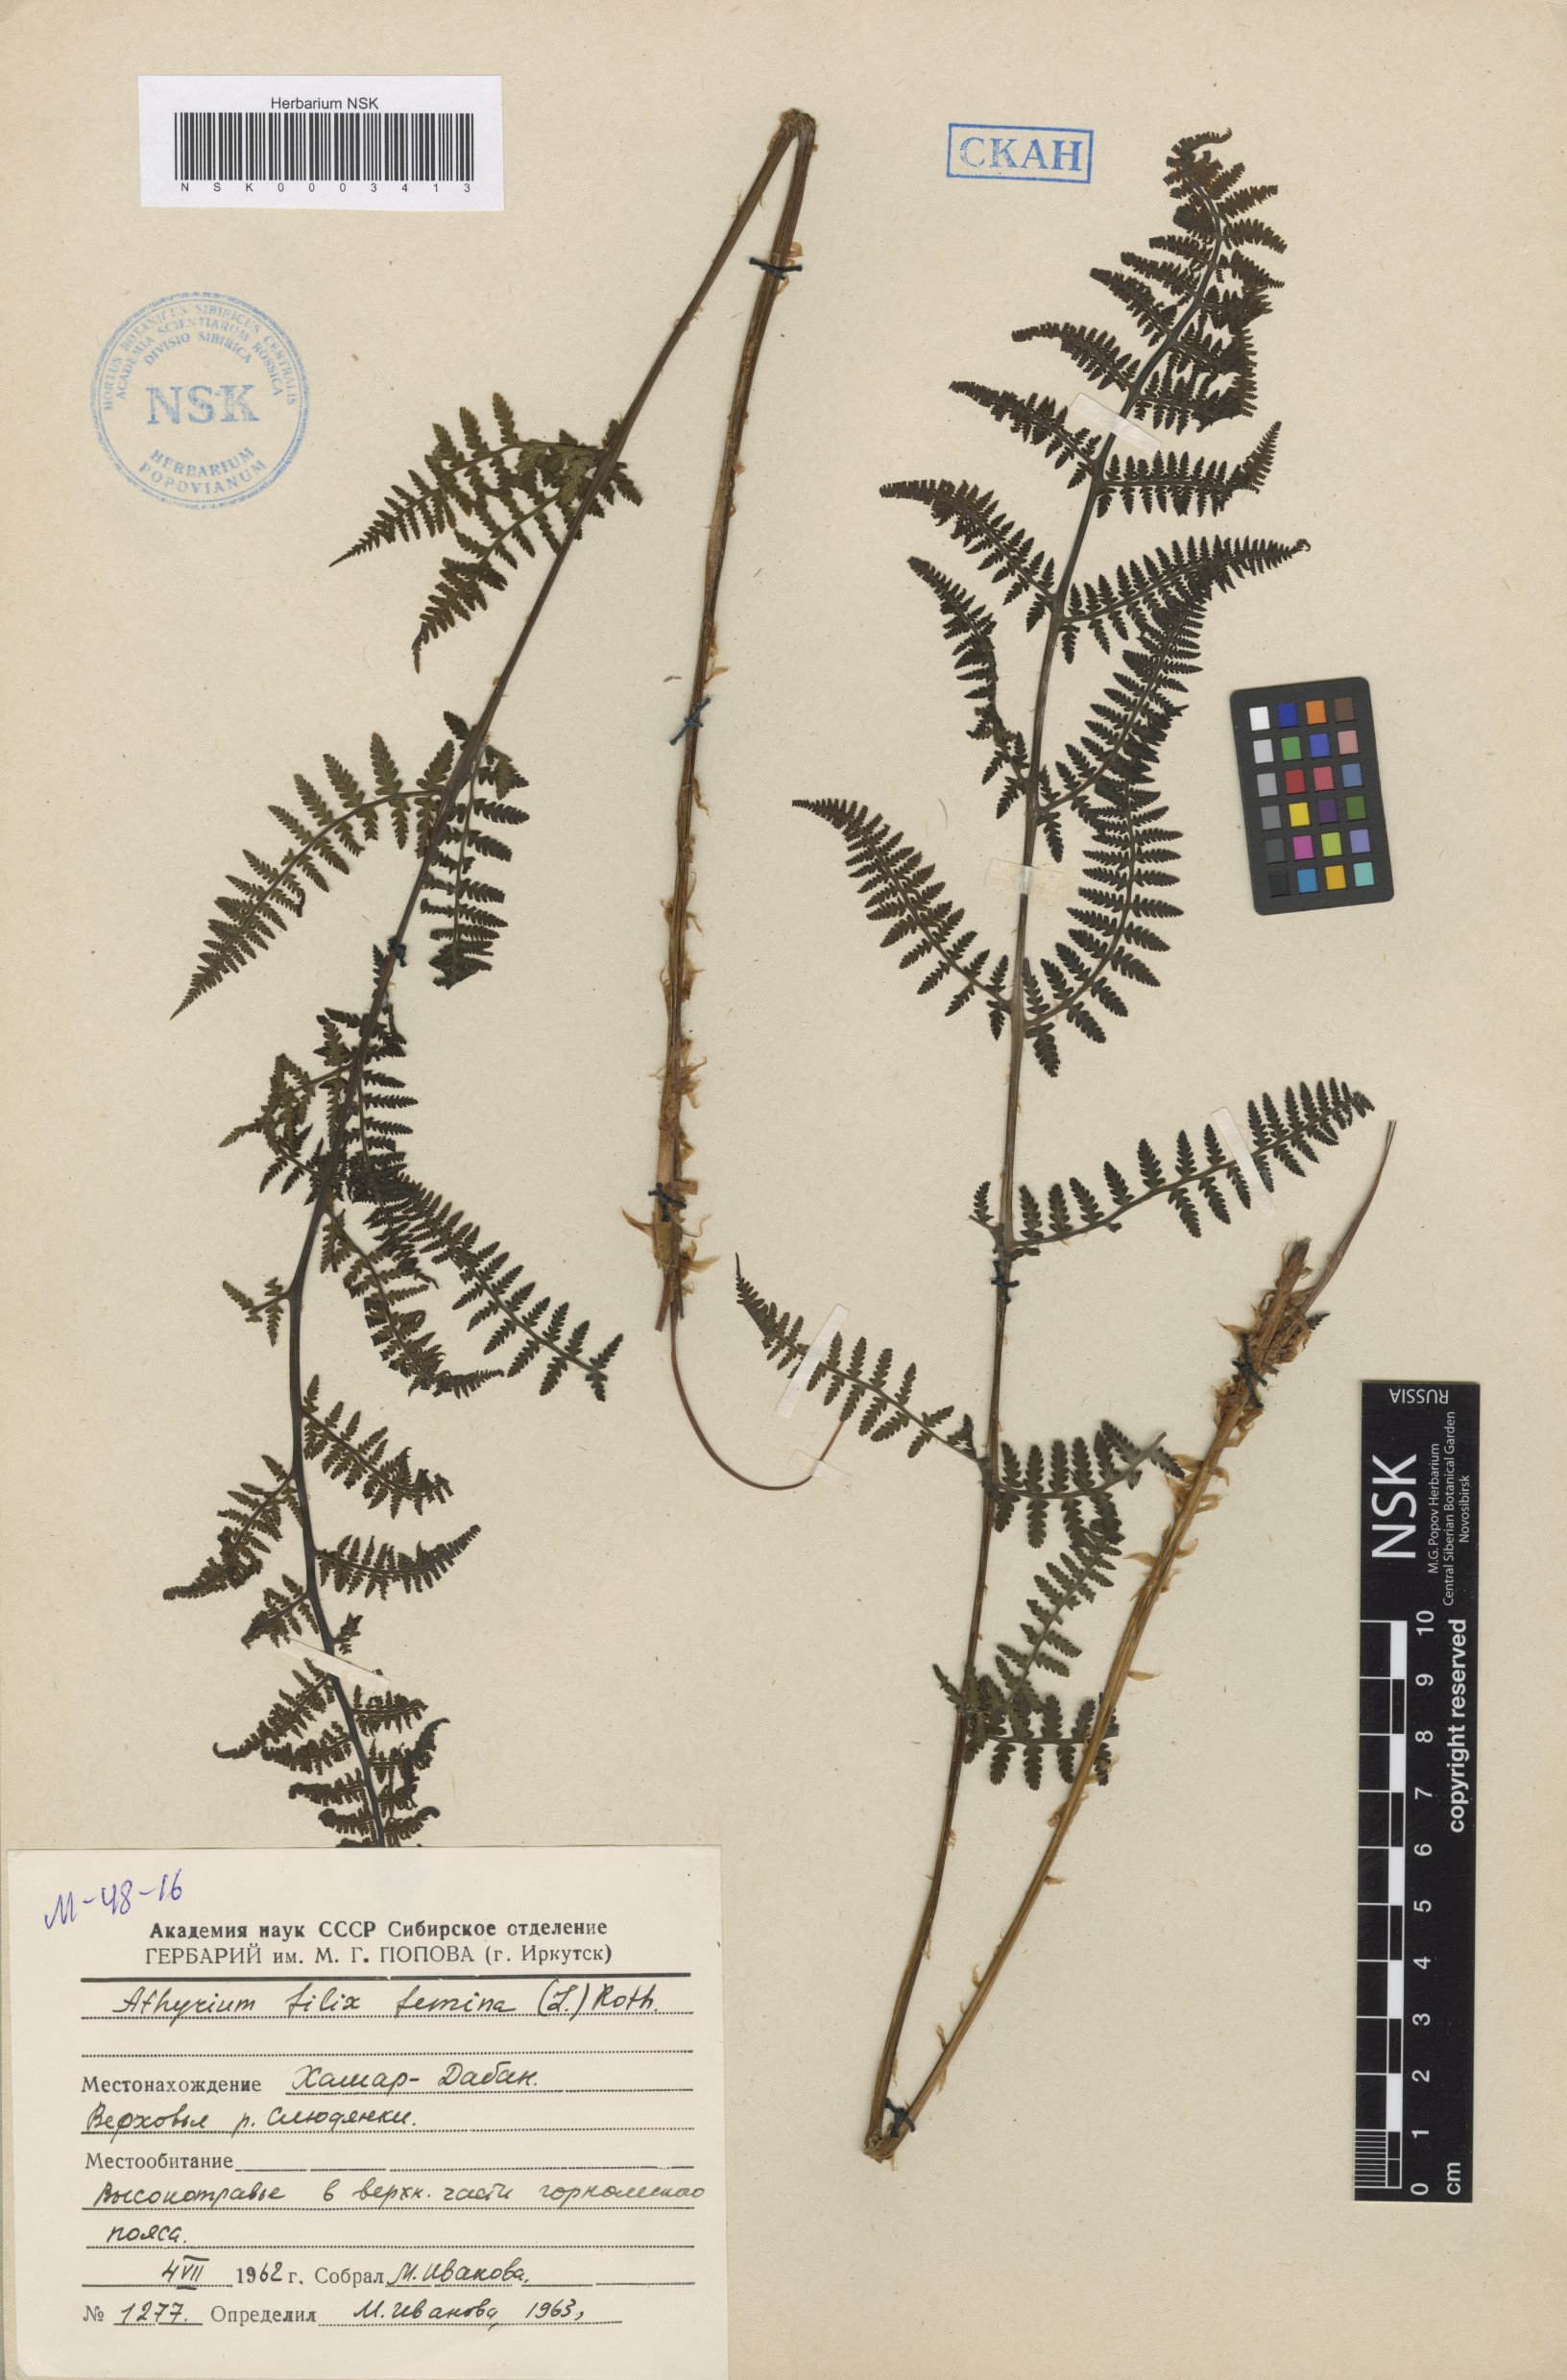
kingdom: Plantae
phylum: Tracheophyta
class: Polypodiopsida
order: Polypodiales
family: Athyriaceae
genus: Athyrium
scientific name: Athyrium filix-femina
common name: Lady fern
